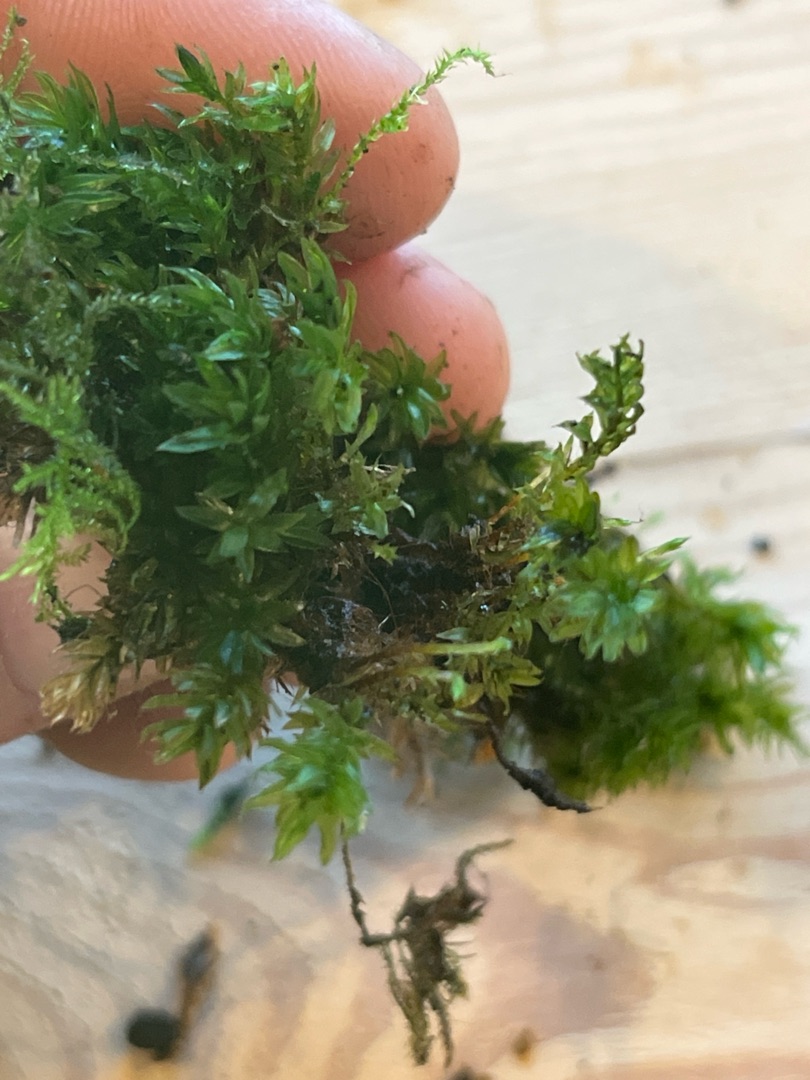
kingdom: Plantae
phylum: Bryophyta
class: Bryopsida
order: Bryales
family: Mniaceae
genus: Mnium
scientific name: Mnium hornum
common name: Brunfiltet stjernemos
